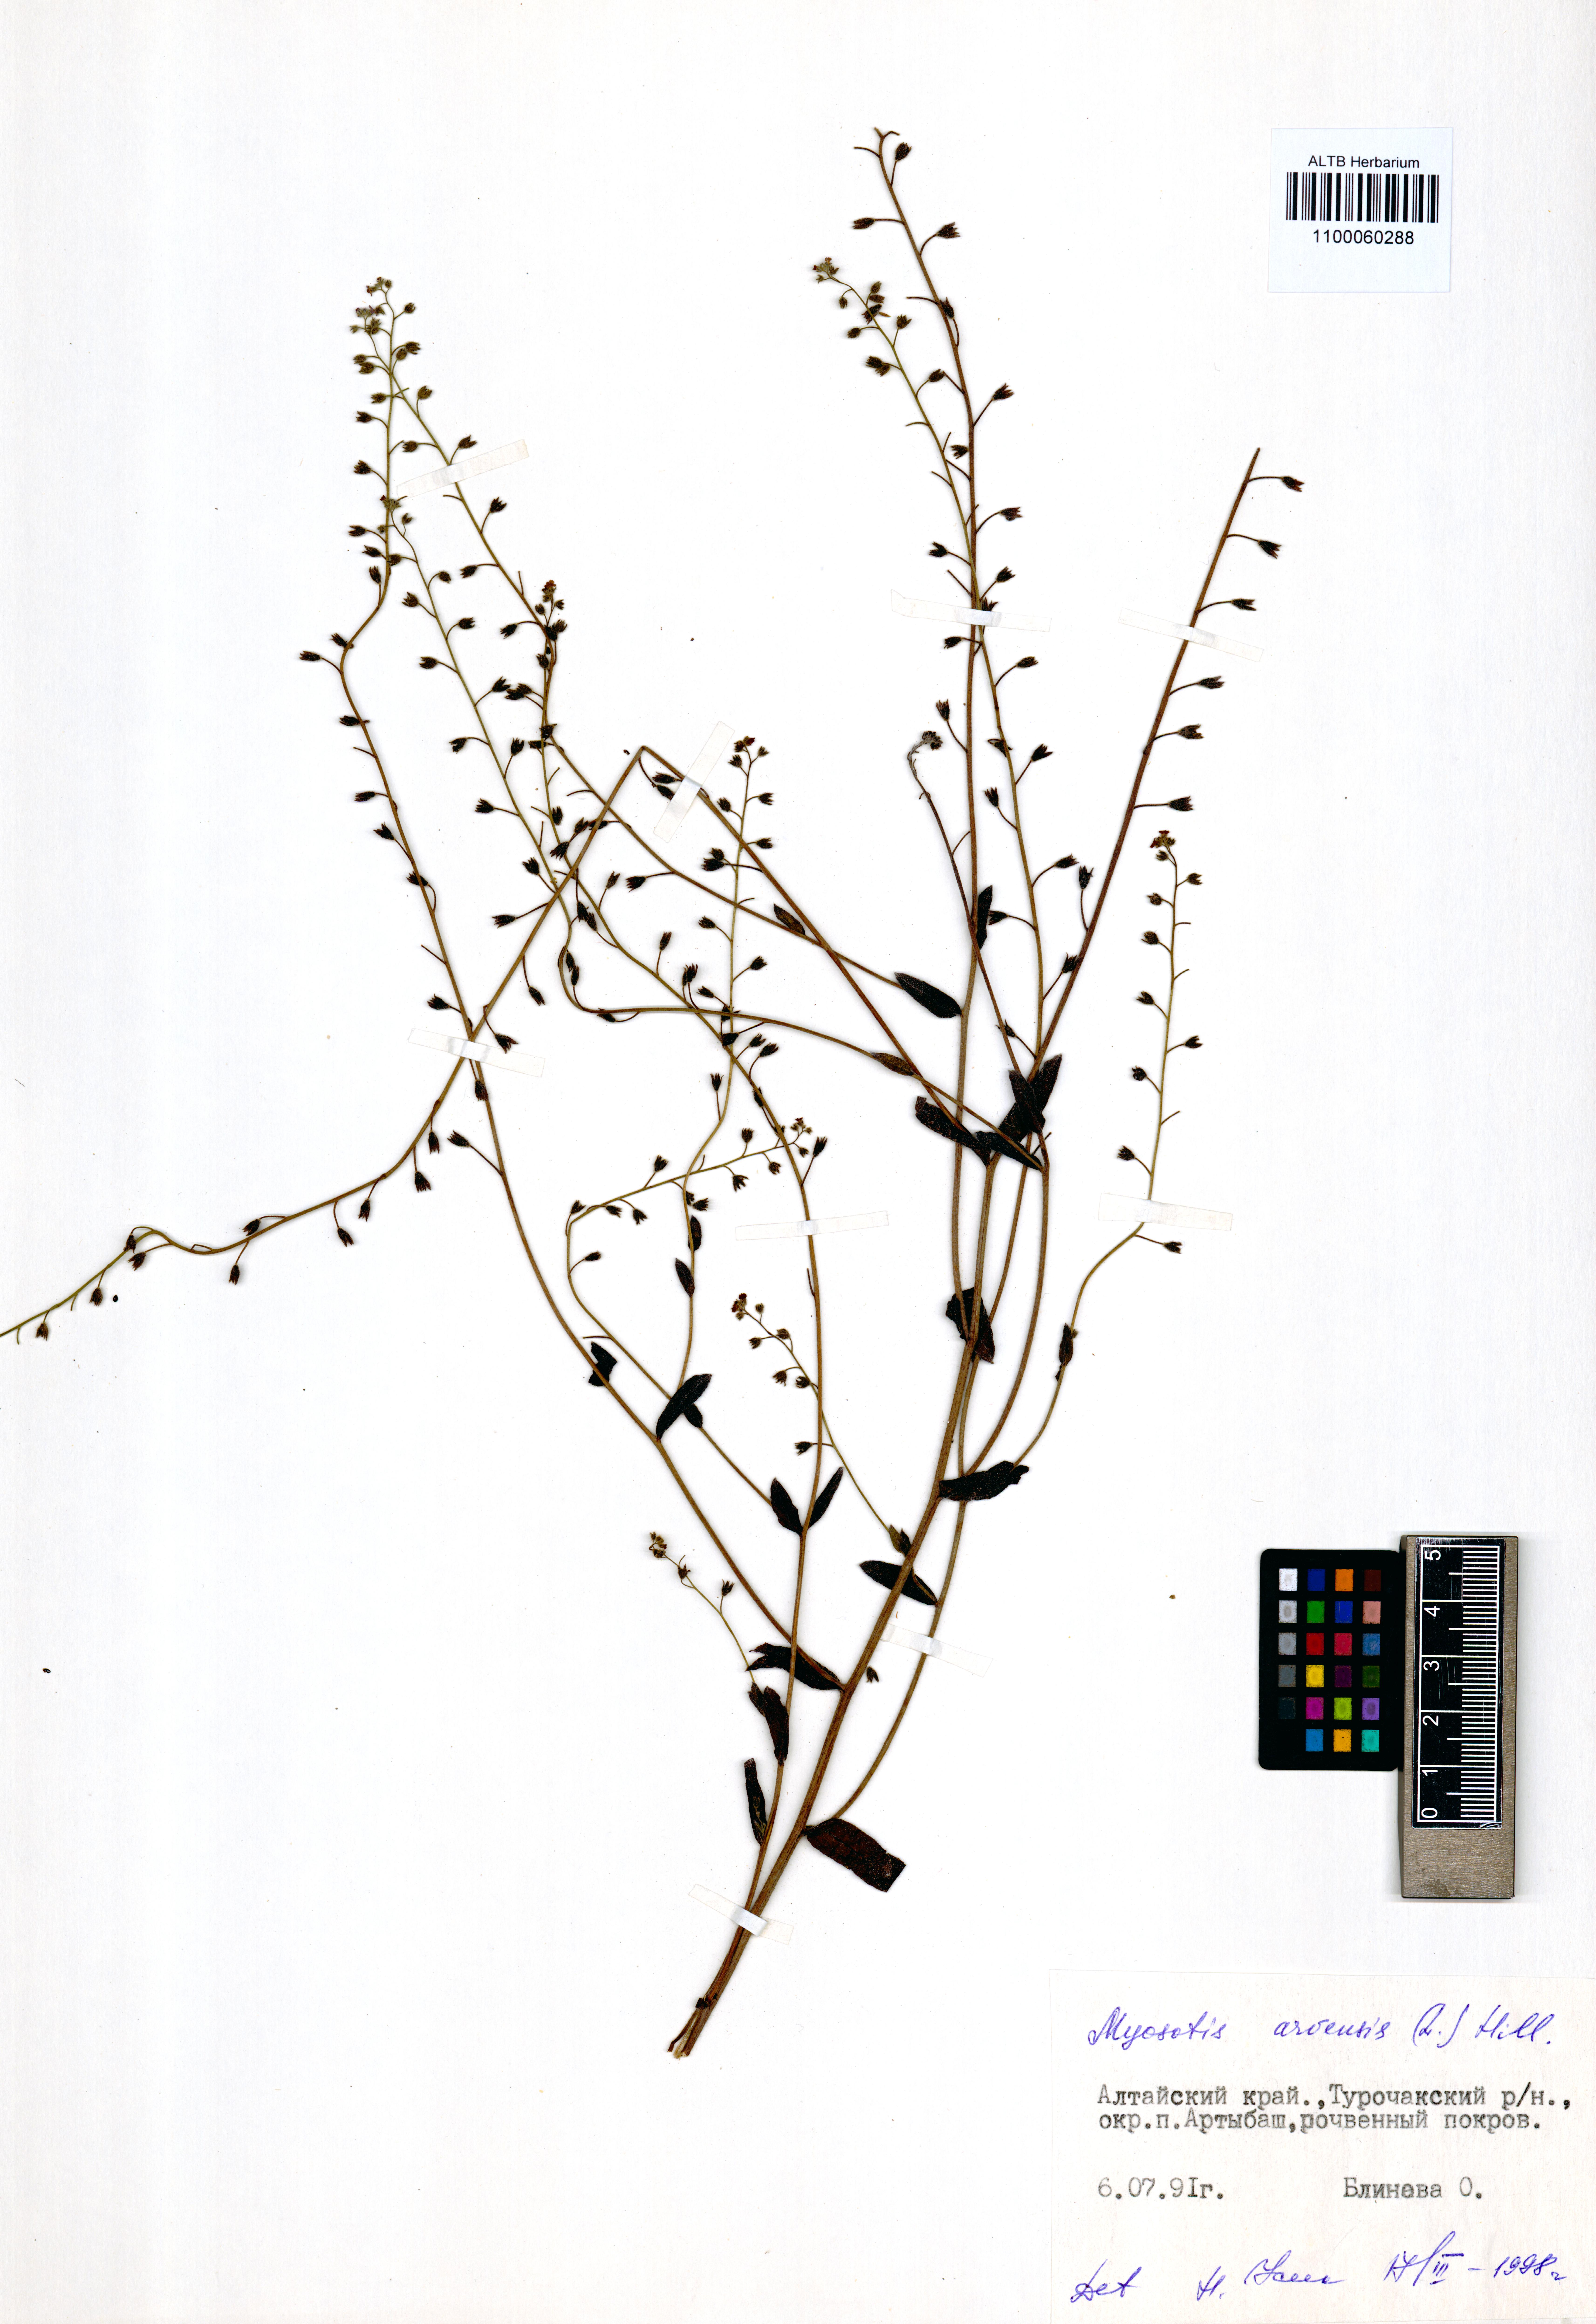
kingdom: Plantae
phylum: Tracheophyta
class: Magnoliopsida
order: Boraginales
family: Boraginaceae
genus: Myosotis
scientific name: Myosotis arvensis
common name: Field forget-me-not
